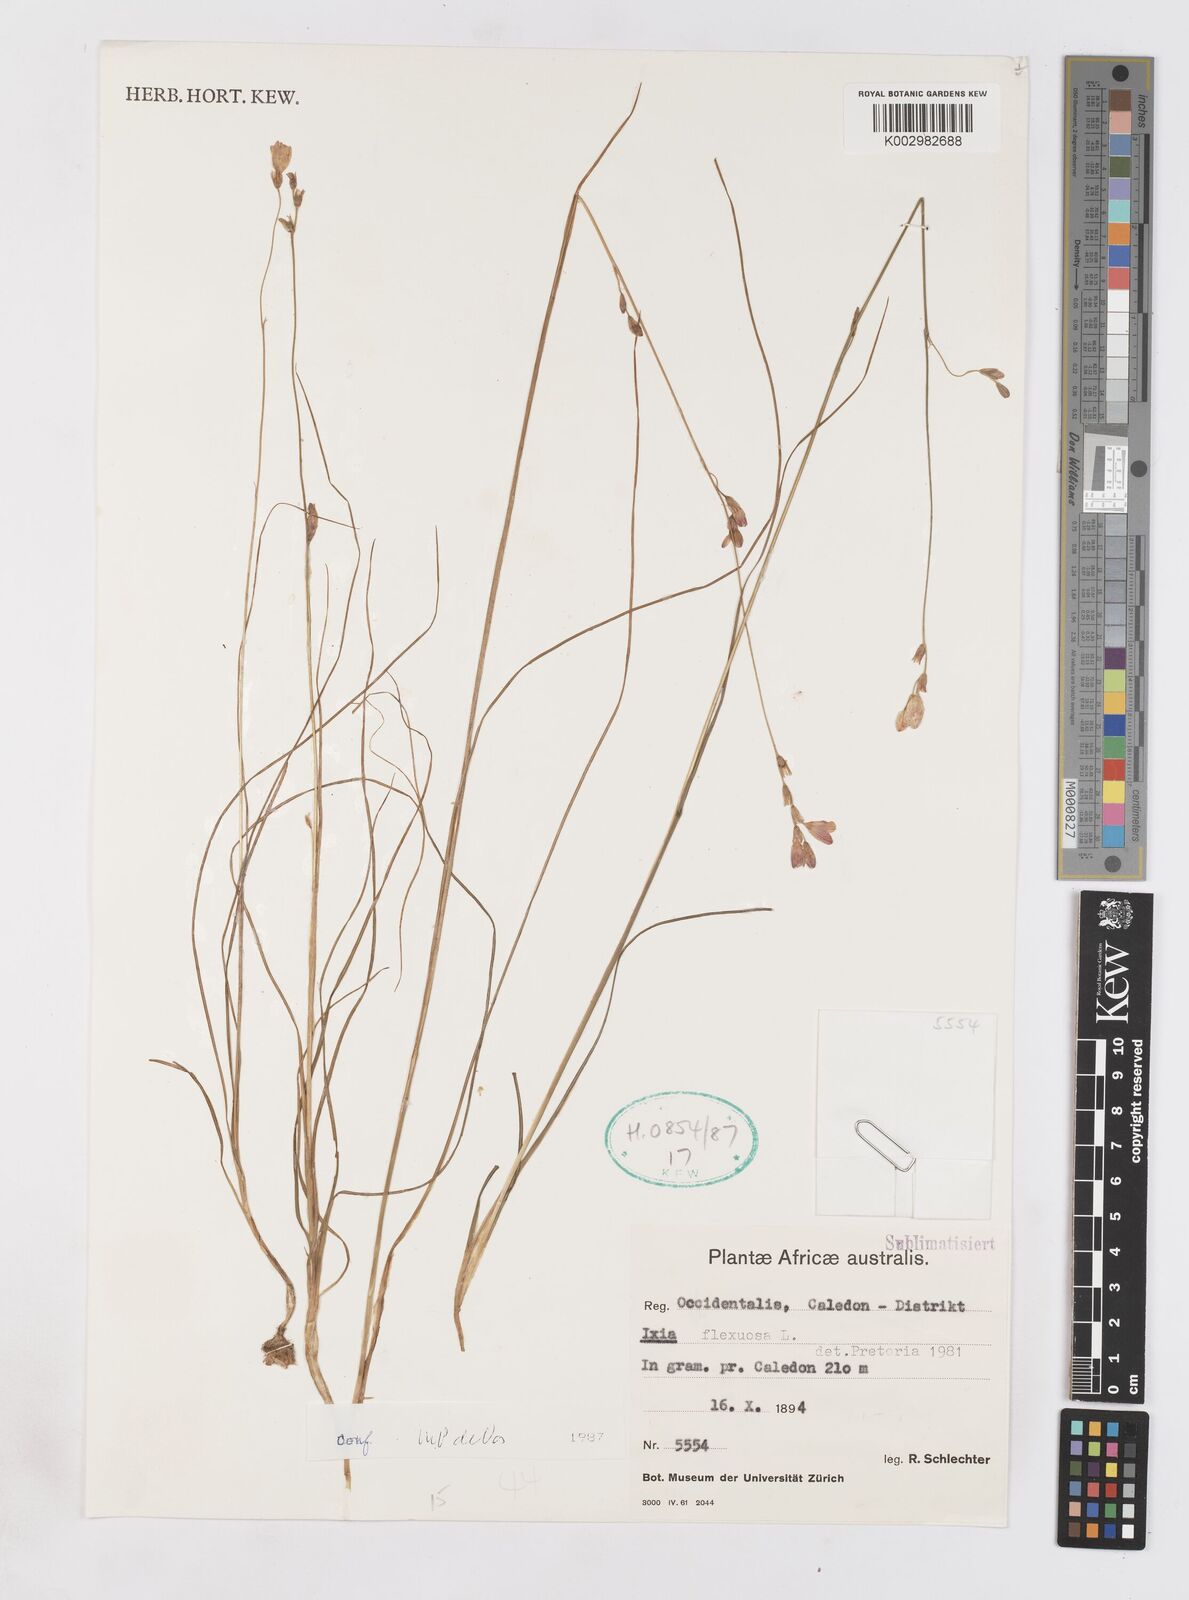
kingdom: Plantae
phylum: Tracheophyta
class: Liliopsida
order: Asparagales
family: Iridaceae
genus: Ixia
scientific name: Ixia flexuosa
